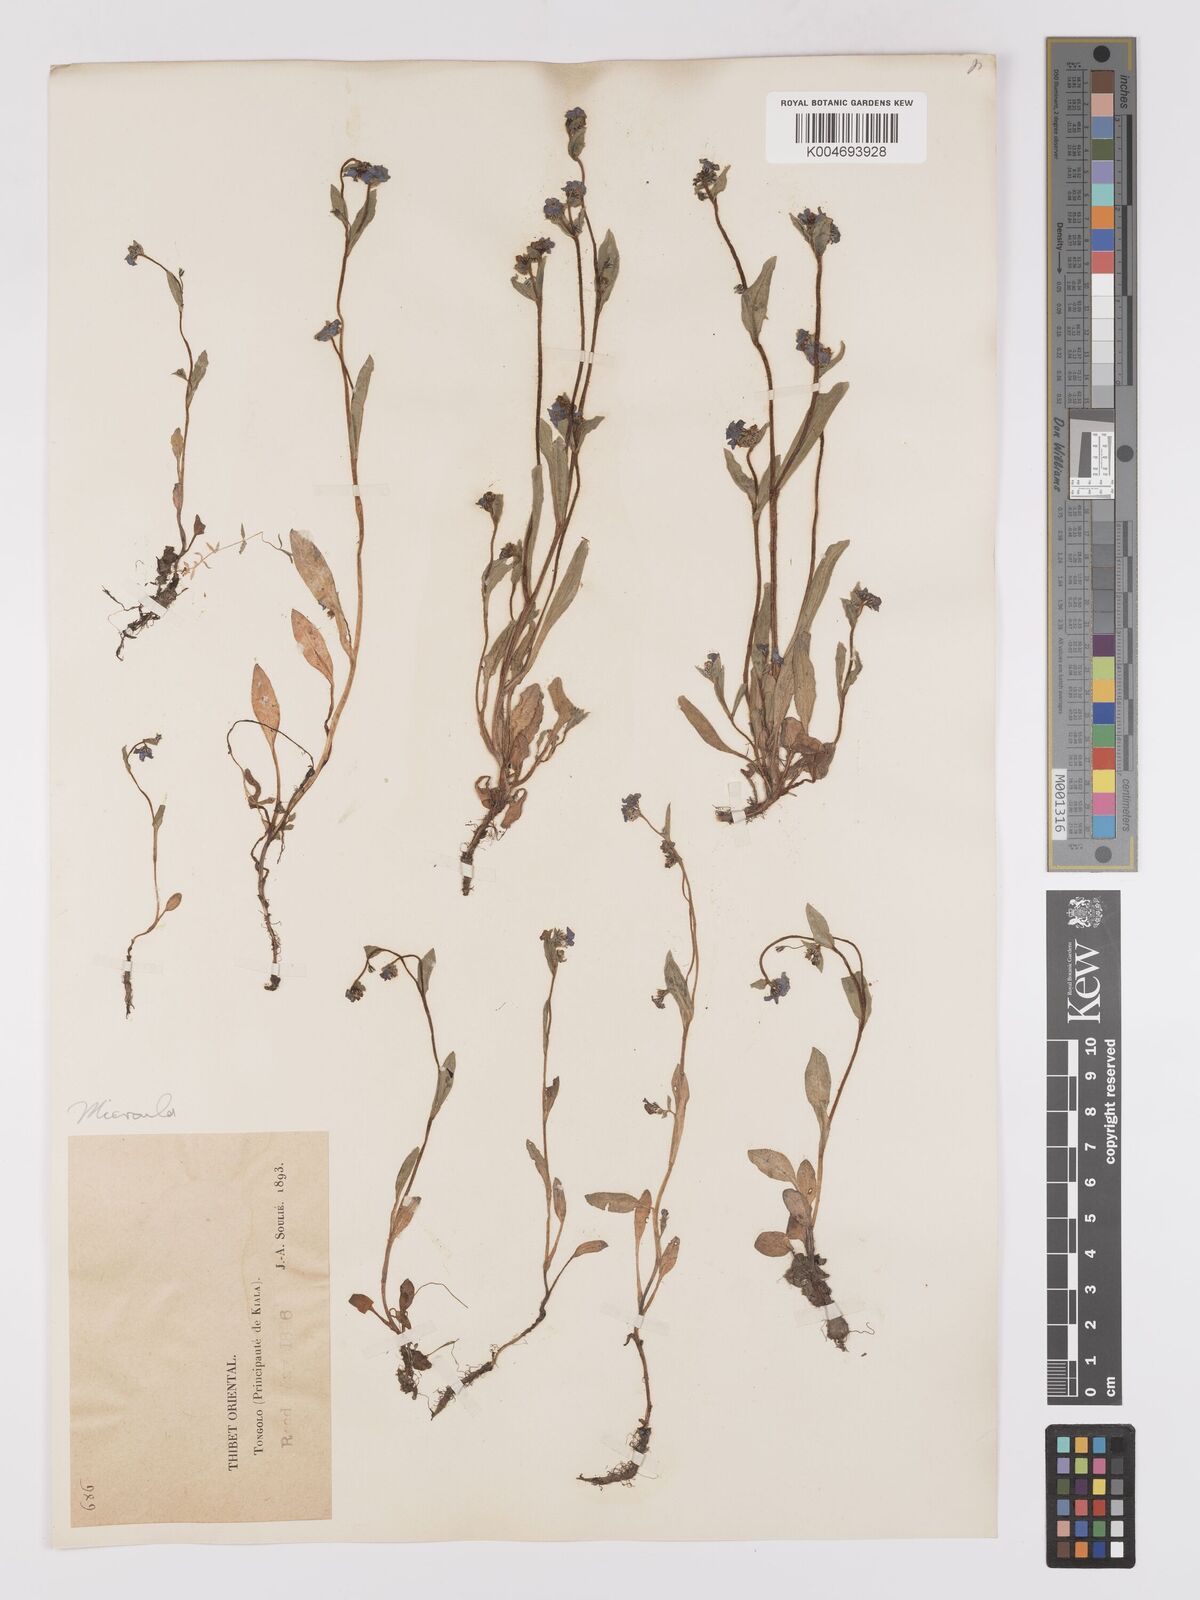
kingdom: Plantae
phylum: Tracheophyta
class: Magnoliopsida
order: Boraginales
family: Boraginaceae
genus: Microula
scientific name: Microula sikkimensis
